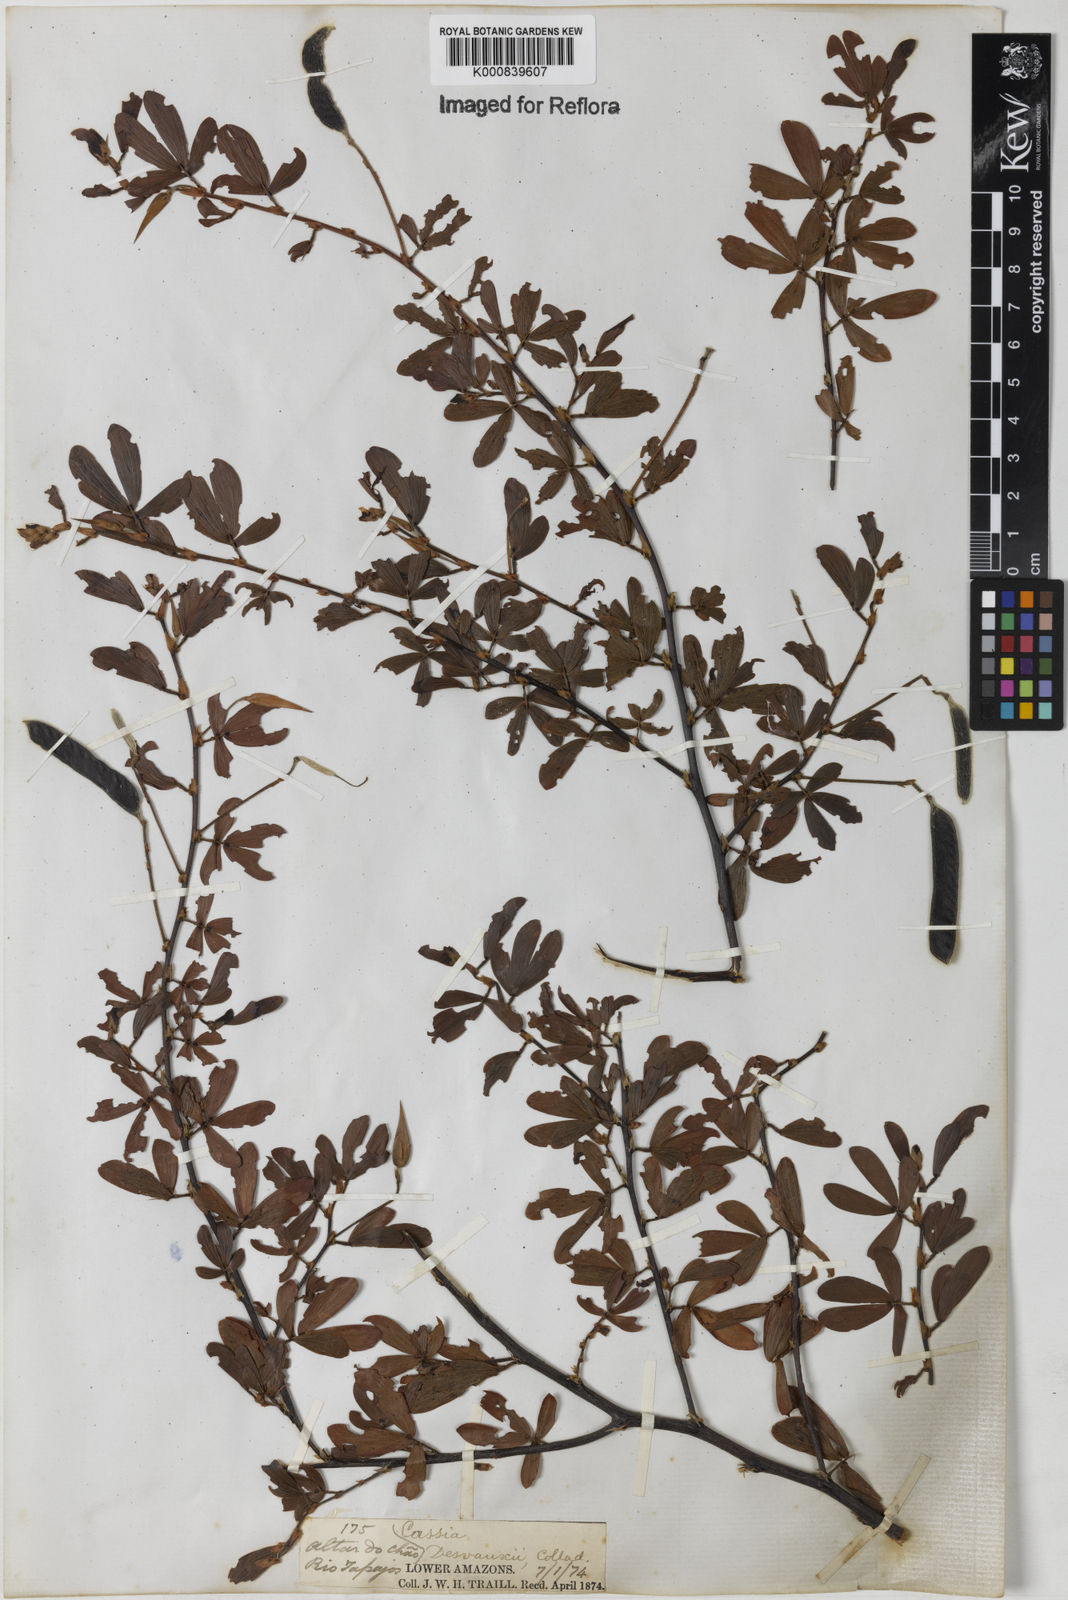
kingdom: Plantae
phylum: Tracheophyta
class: Magnoliopsida
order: Fabales
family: Fabaceae
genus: Chamaecrista
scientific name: Chamaecrista desvauxii
